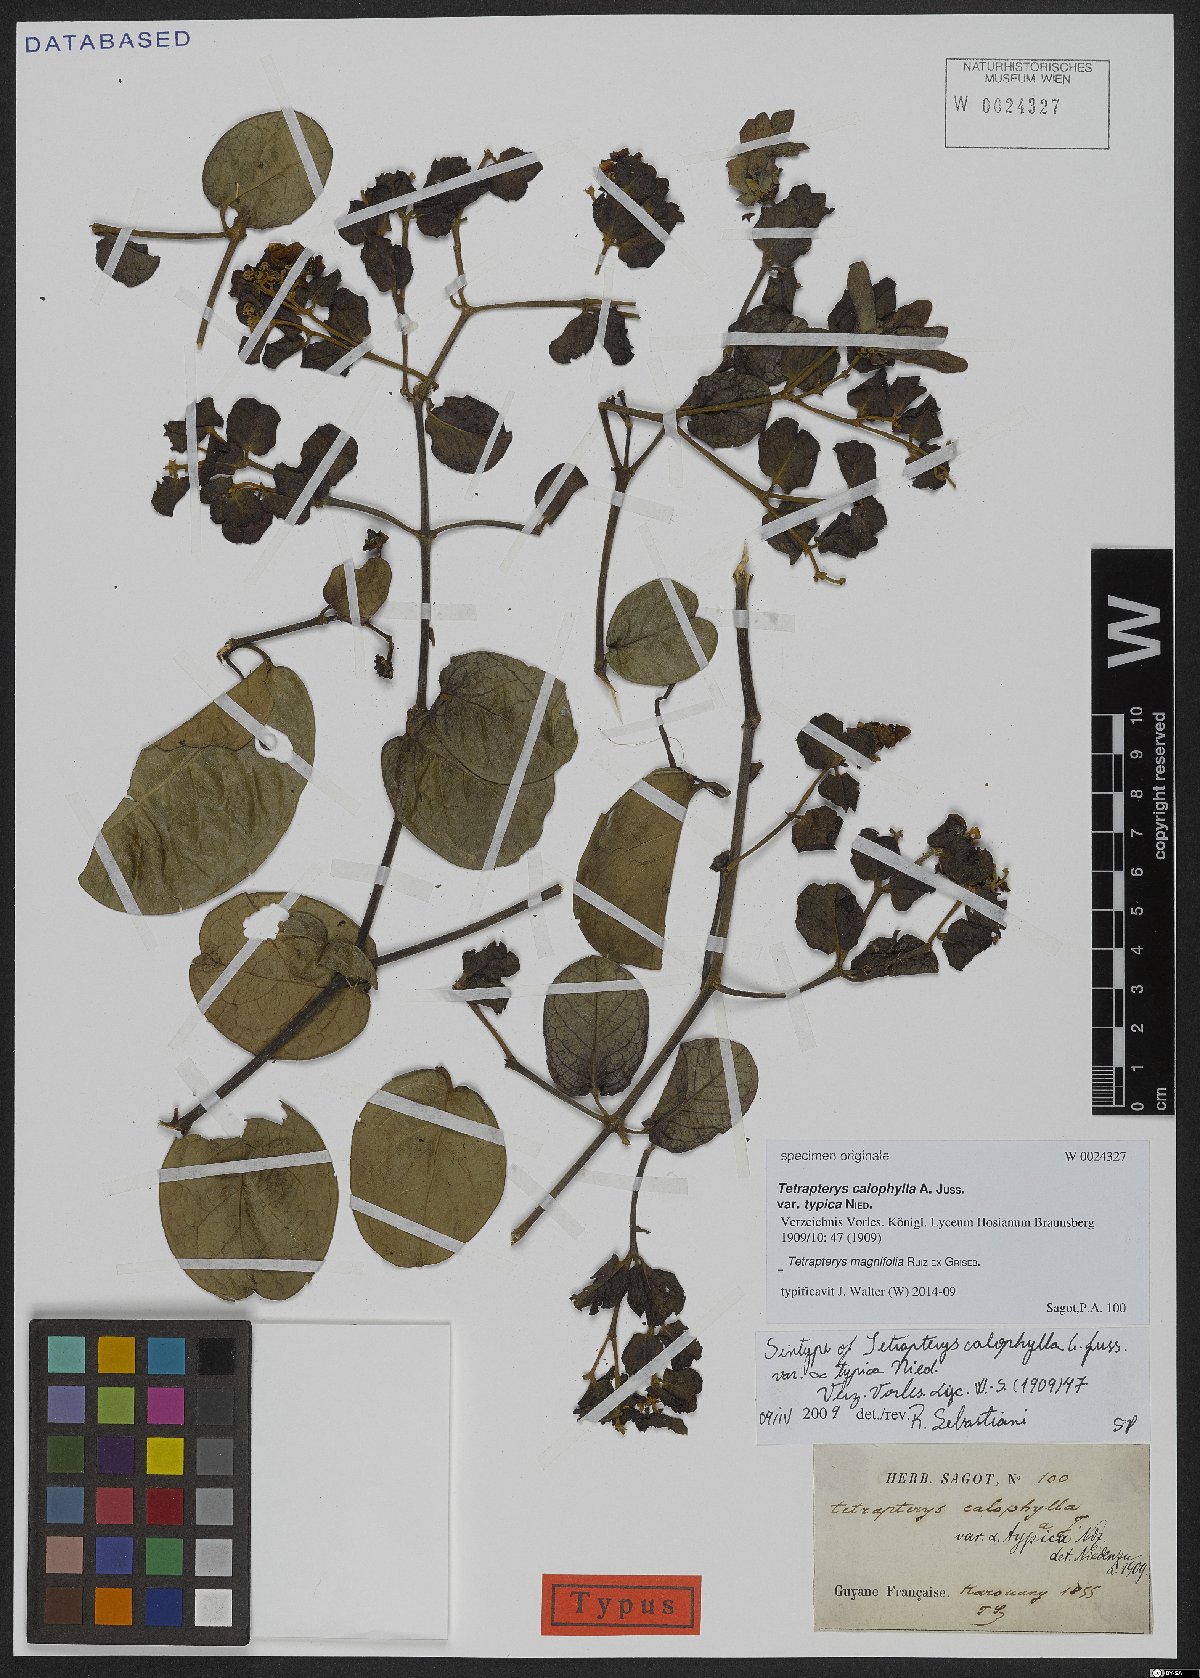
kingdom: Plantae
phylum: Tracheophyta
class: Magnoliopsida
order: Malpighiales
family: Malpighiaceae
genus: Tetrapterys
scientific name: Tetrapterys magnifolia
